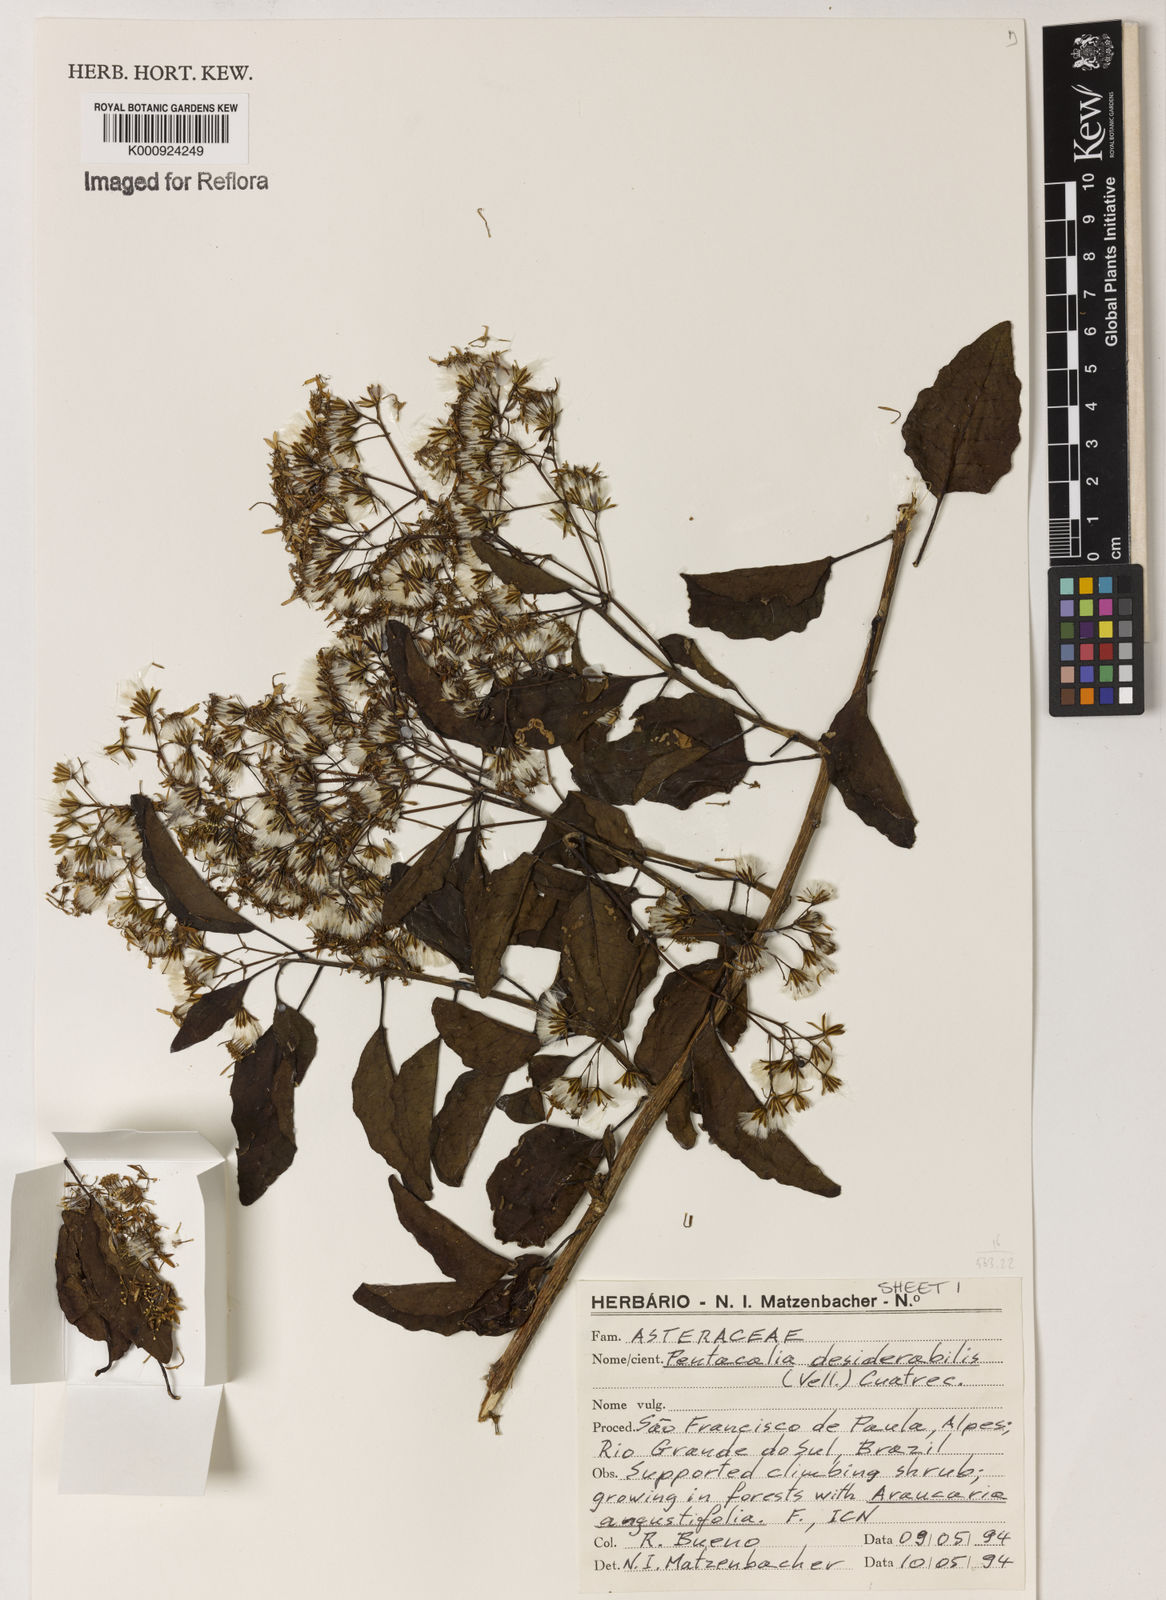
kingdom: Plantae
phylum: Tracheophyta
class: Magnoliopsida
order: Asterales
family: Asteraceae
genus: Pentacalia
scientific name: Pentacalia desiderabilis
